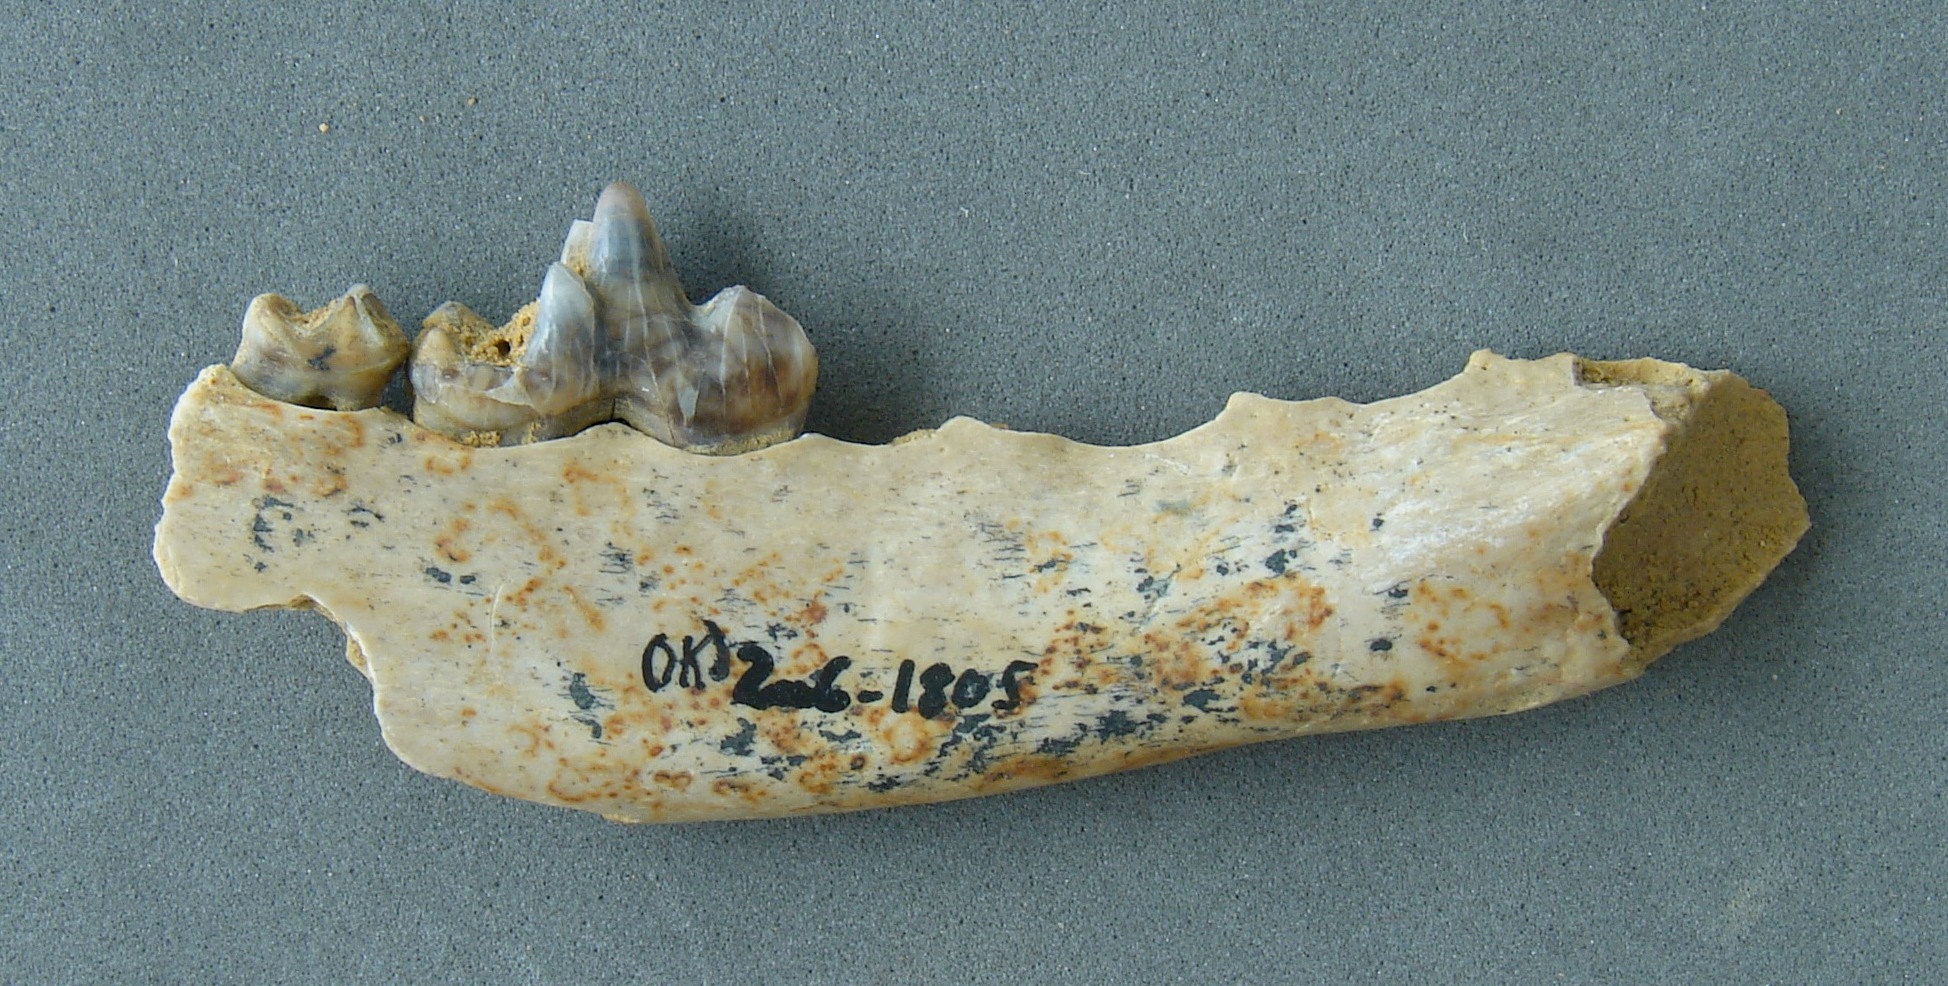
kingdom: Animalia
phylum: Chordata
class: Mammalia
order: Carnivora
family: Canidae
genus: Vulpes
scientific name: Vulpes vulpes
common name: Red fox
